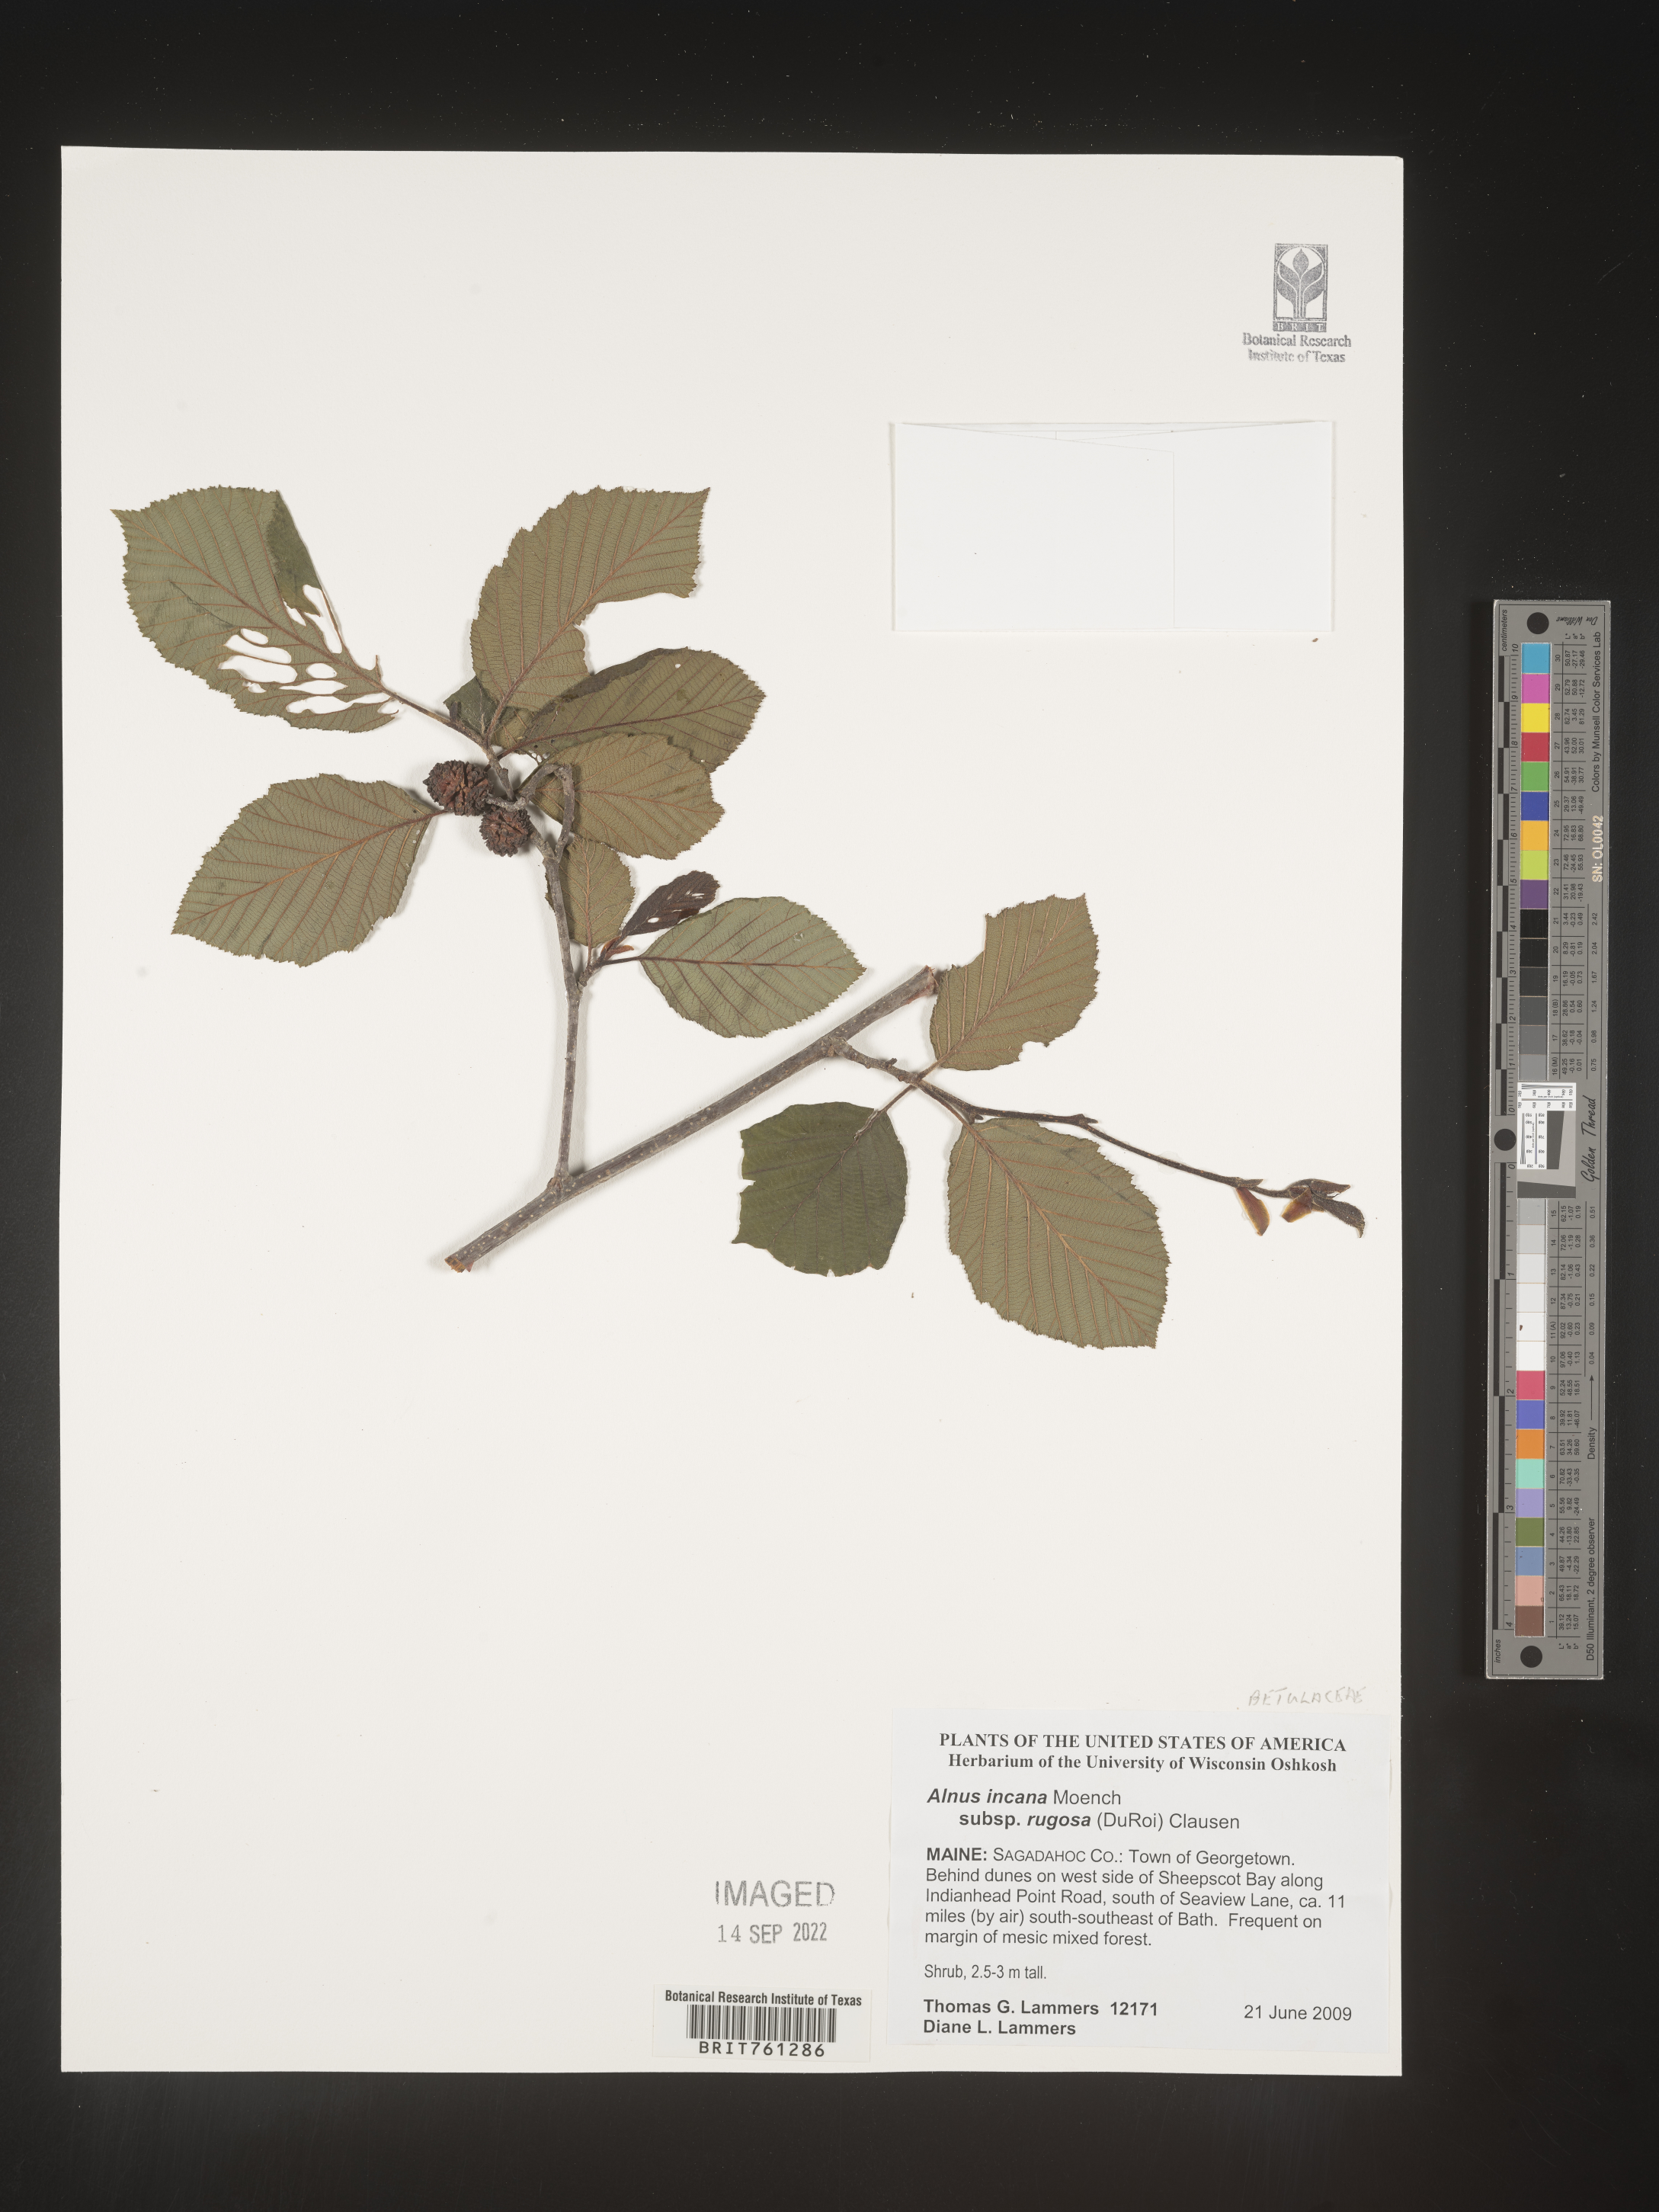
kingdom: Plantae
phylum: Tracheophyta
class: Magnoliopsida
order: Fagales
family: Betulaceae
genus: Alnus
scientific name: Alnus incana
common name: Grey alder
